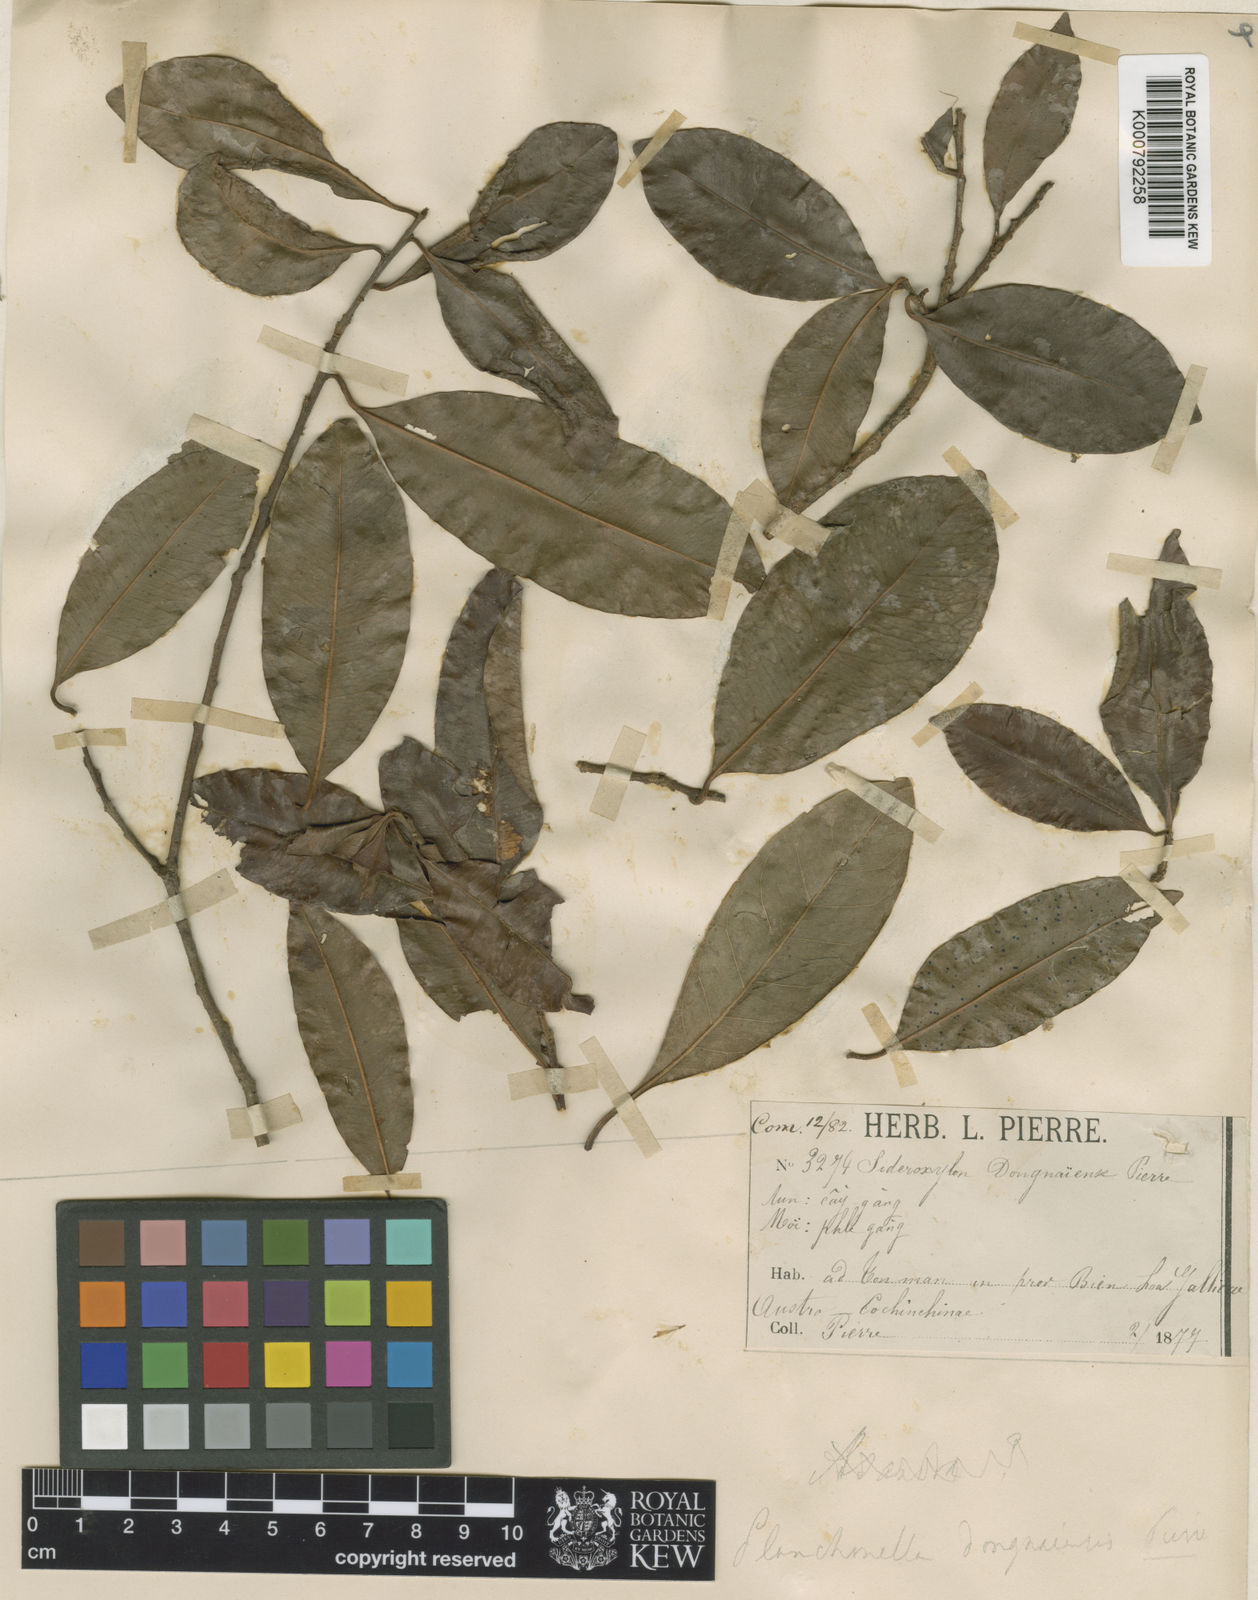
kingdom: Plantae
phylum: Tracheophyta
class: Magnoliopsida
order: Ericales
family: Sapotaceae
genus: Xantolis
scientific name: Xantolis tomentosa
